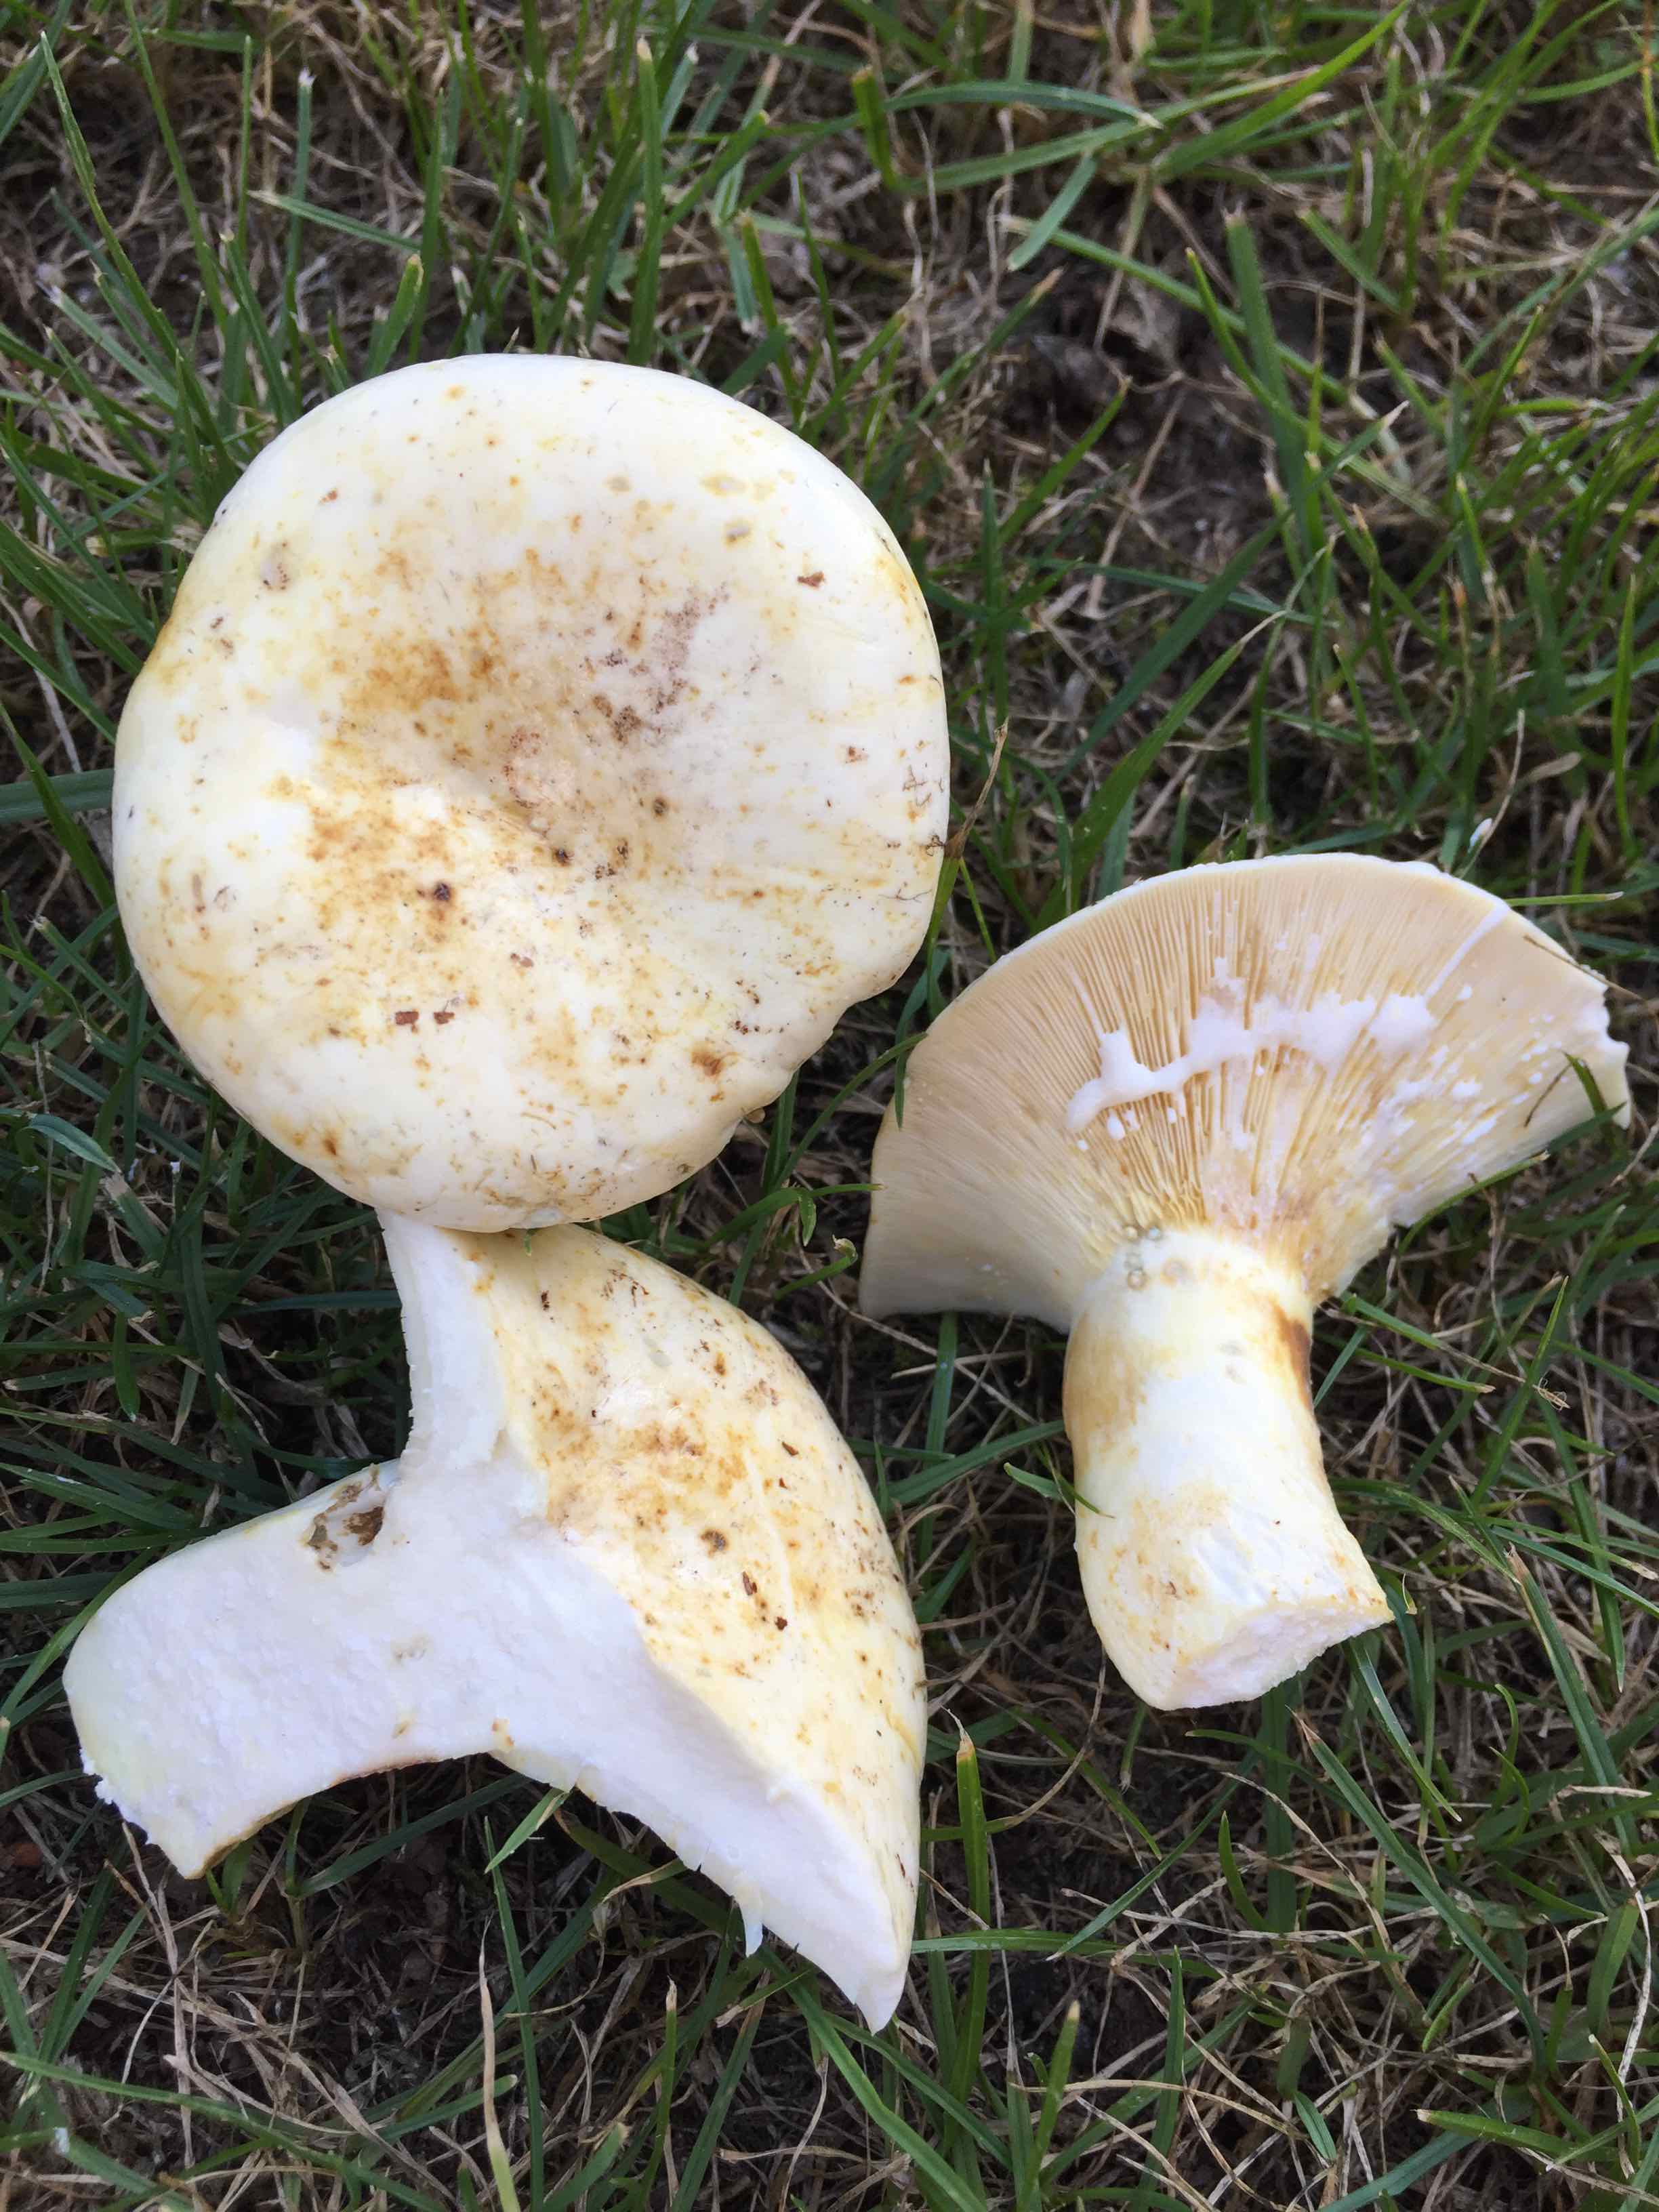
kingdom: Fungi
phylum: Basidiomycota
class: Agaricomycetes
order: Russulales
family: Russulaceae
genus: Lactifluus
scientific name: Lactifluus
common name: mælkehat
